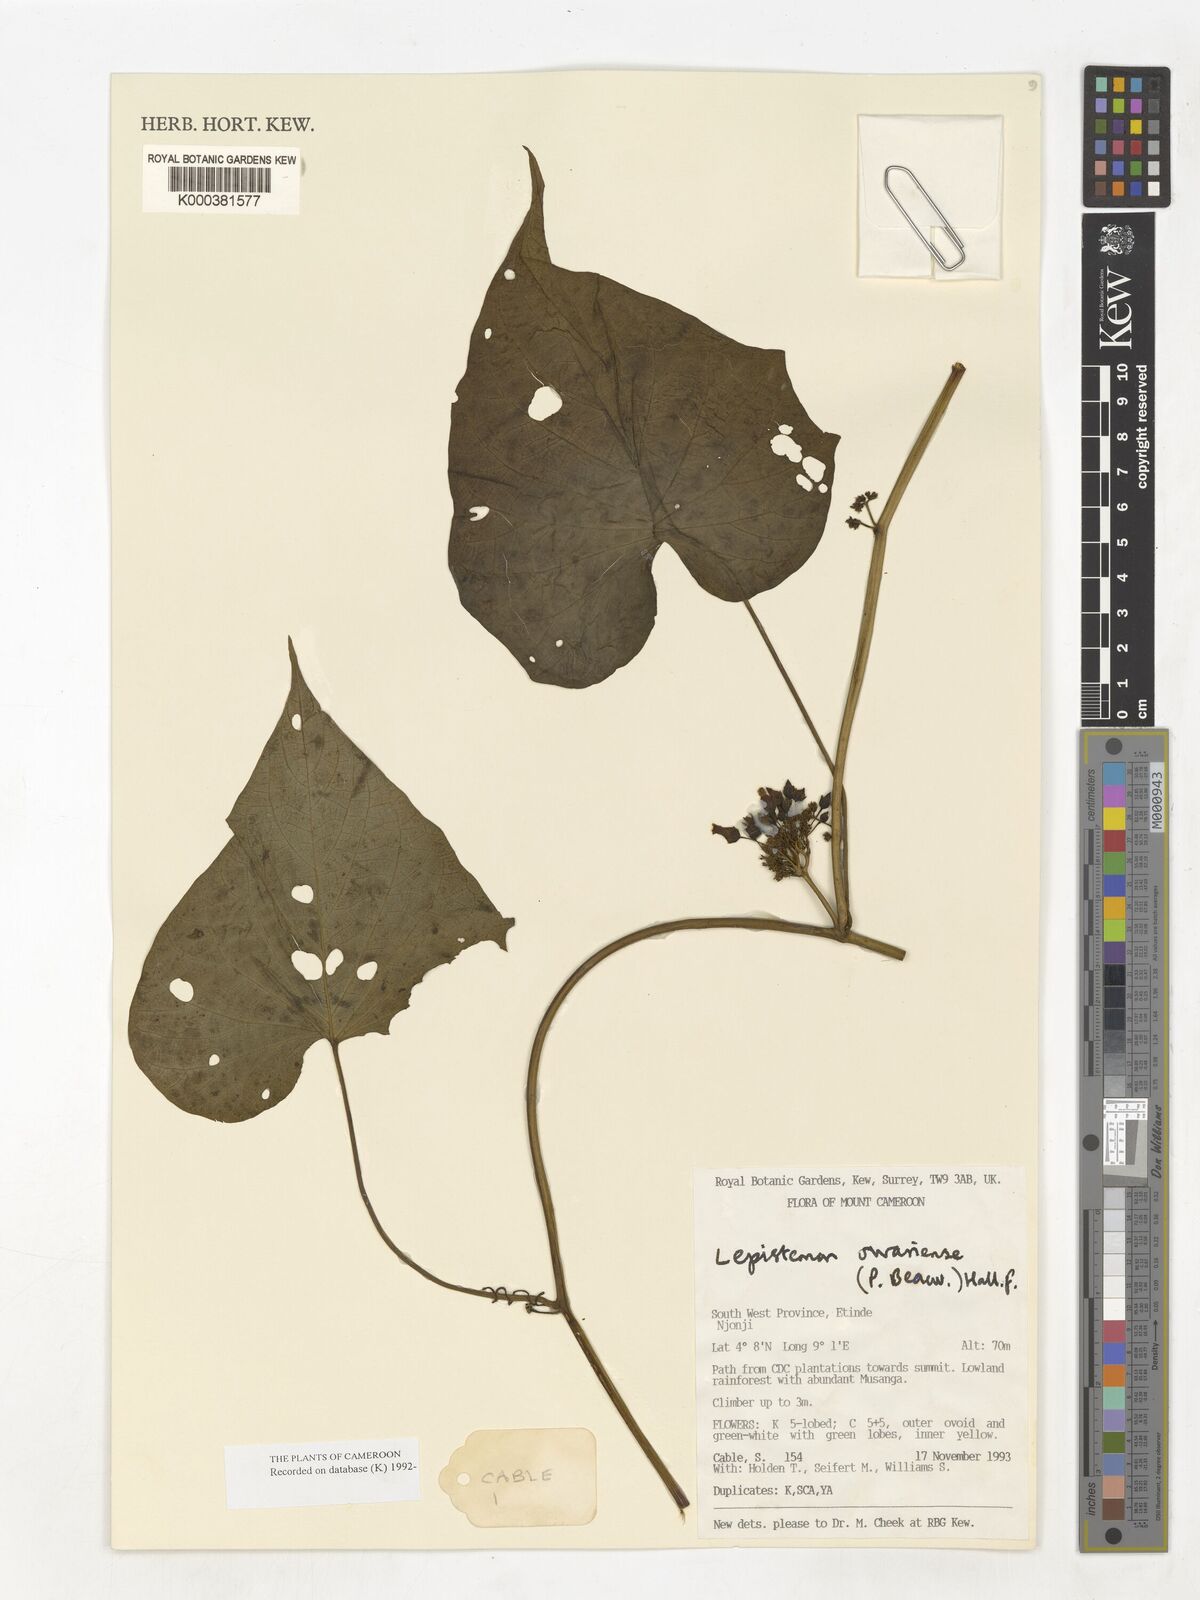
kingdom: Plantae
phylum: Tracheophyta
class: Magnoliopsida
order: Solanales
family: Convolvulaceae
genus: Lepistemon
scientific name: Lepistemon
